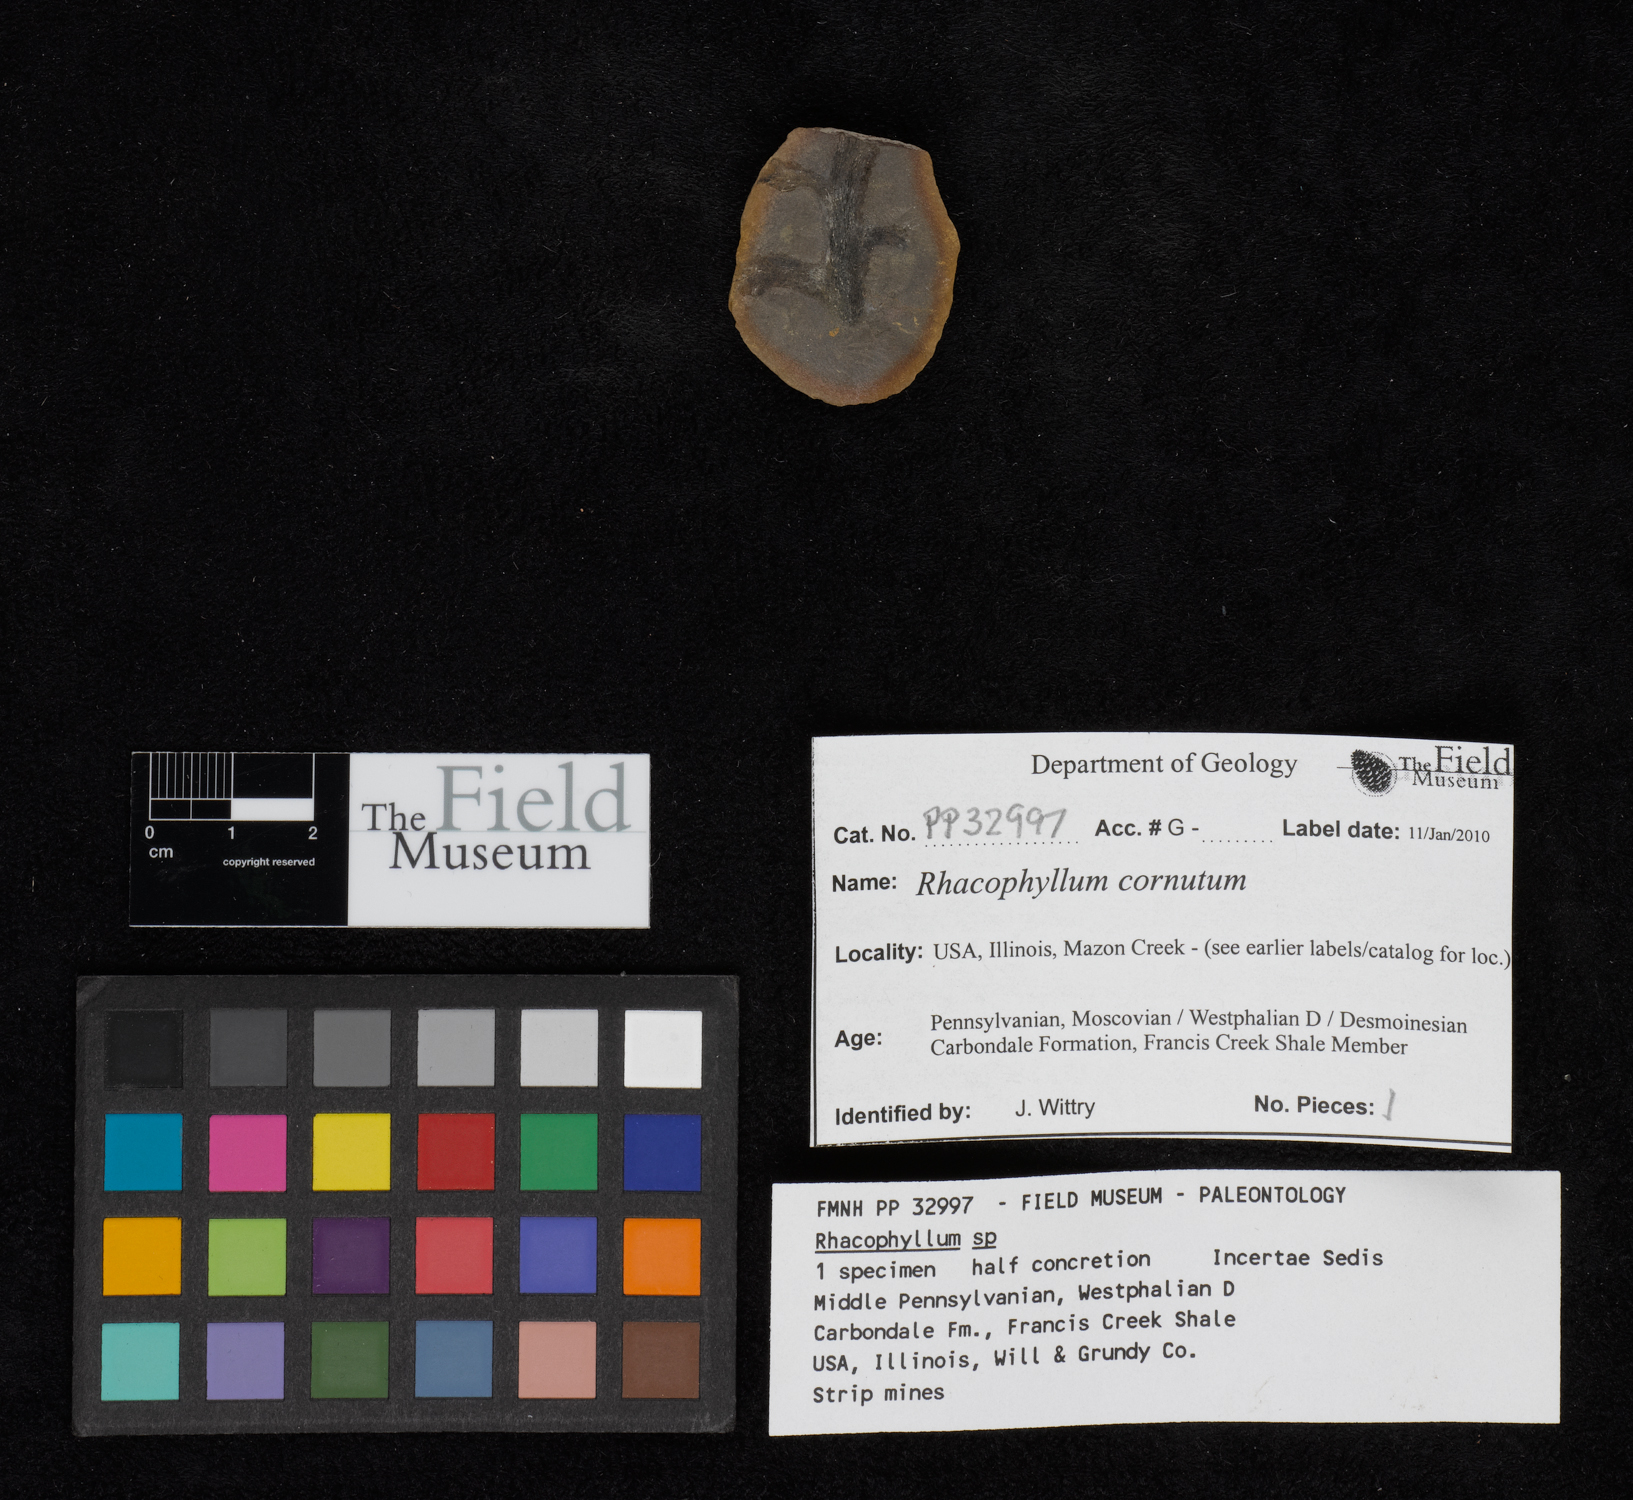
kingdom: Plantae
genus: Rhacophyllum
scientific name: Rhacophyllum
